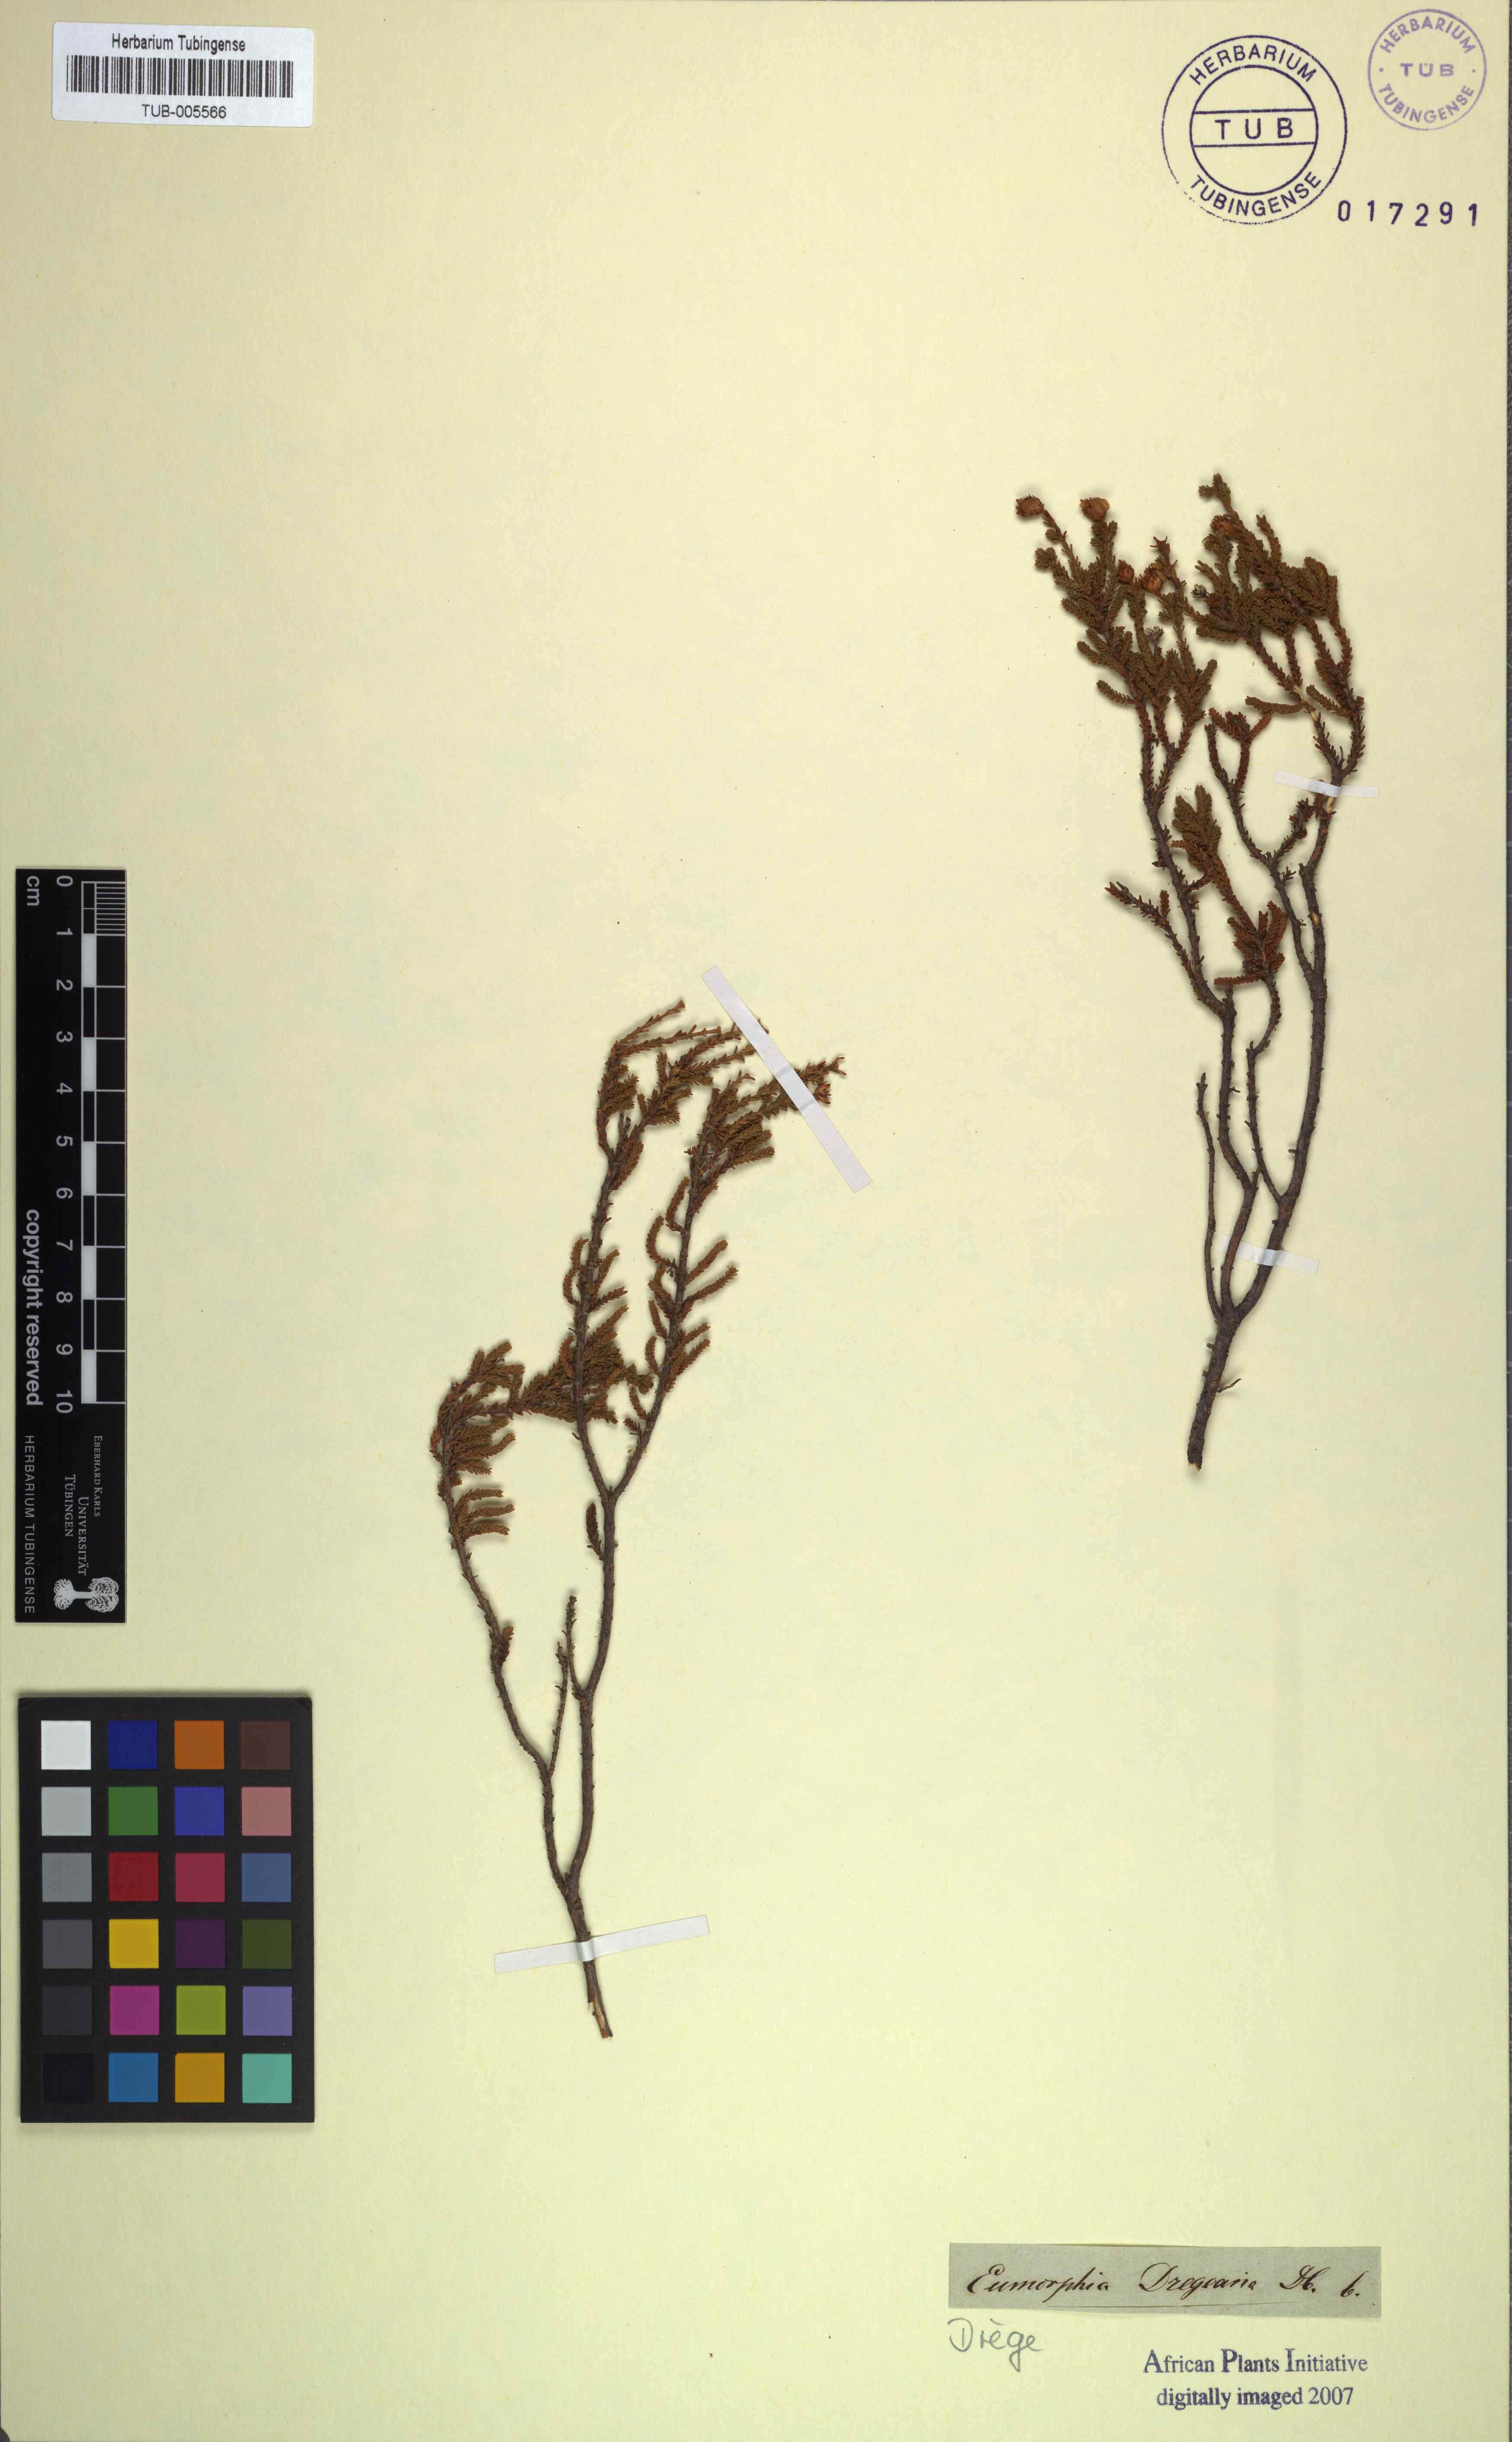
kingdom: Plantae
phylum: Tracheophyta
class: Magnoliopsida
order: Asterales
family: Asteraceae
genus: Eumorphia
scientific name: Eumorphia dregeana
